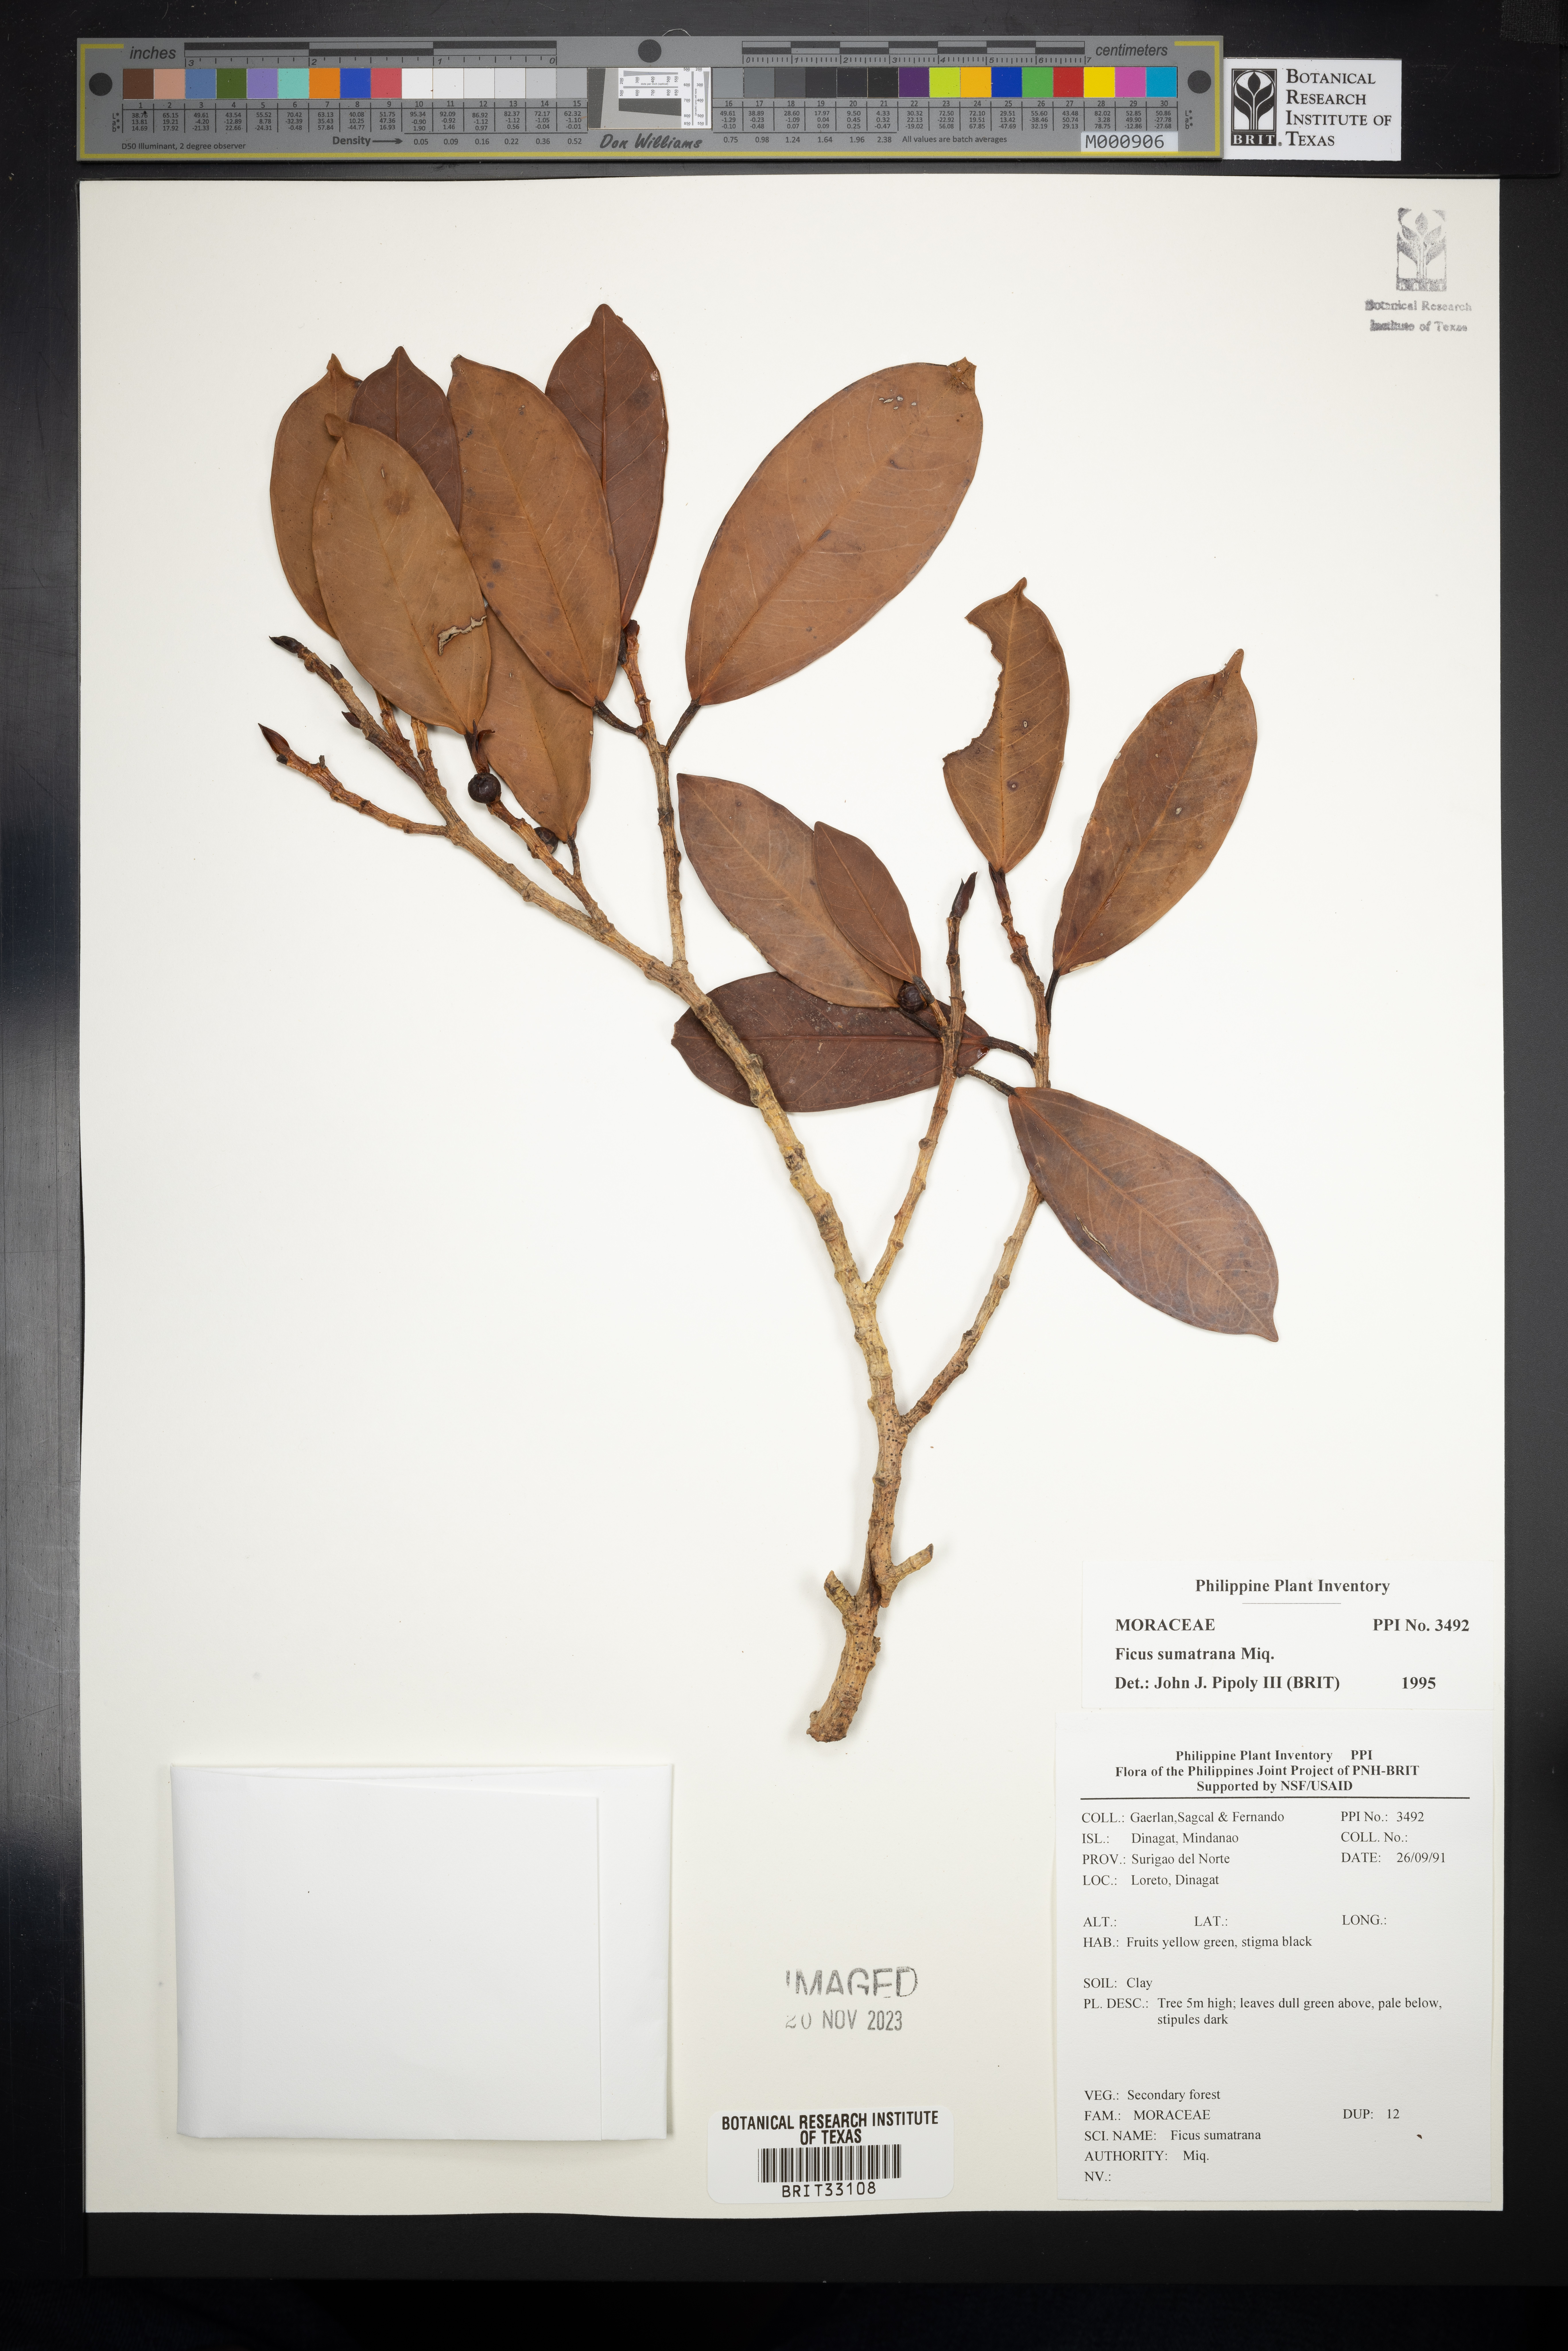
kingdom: Plantae
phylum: Tracheophyta
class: Magnoliopsida
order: Rosales
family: Moraceae
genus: Ficus
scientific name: Ficus sumatrana
